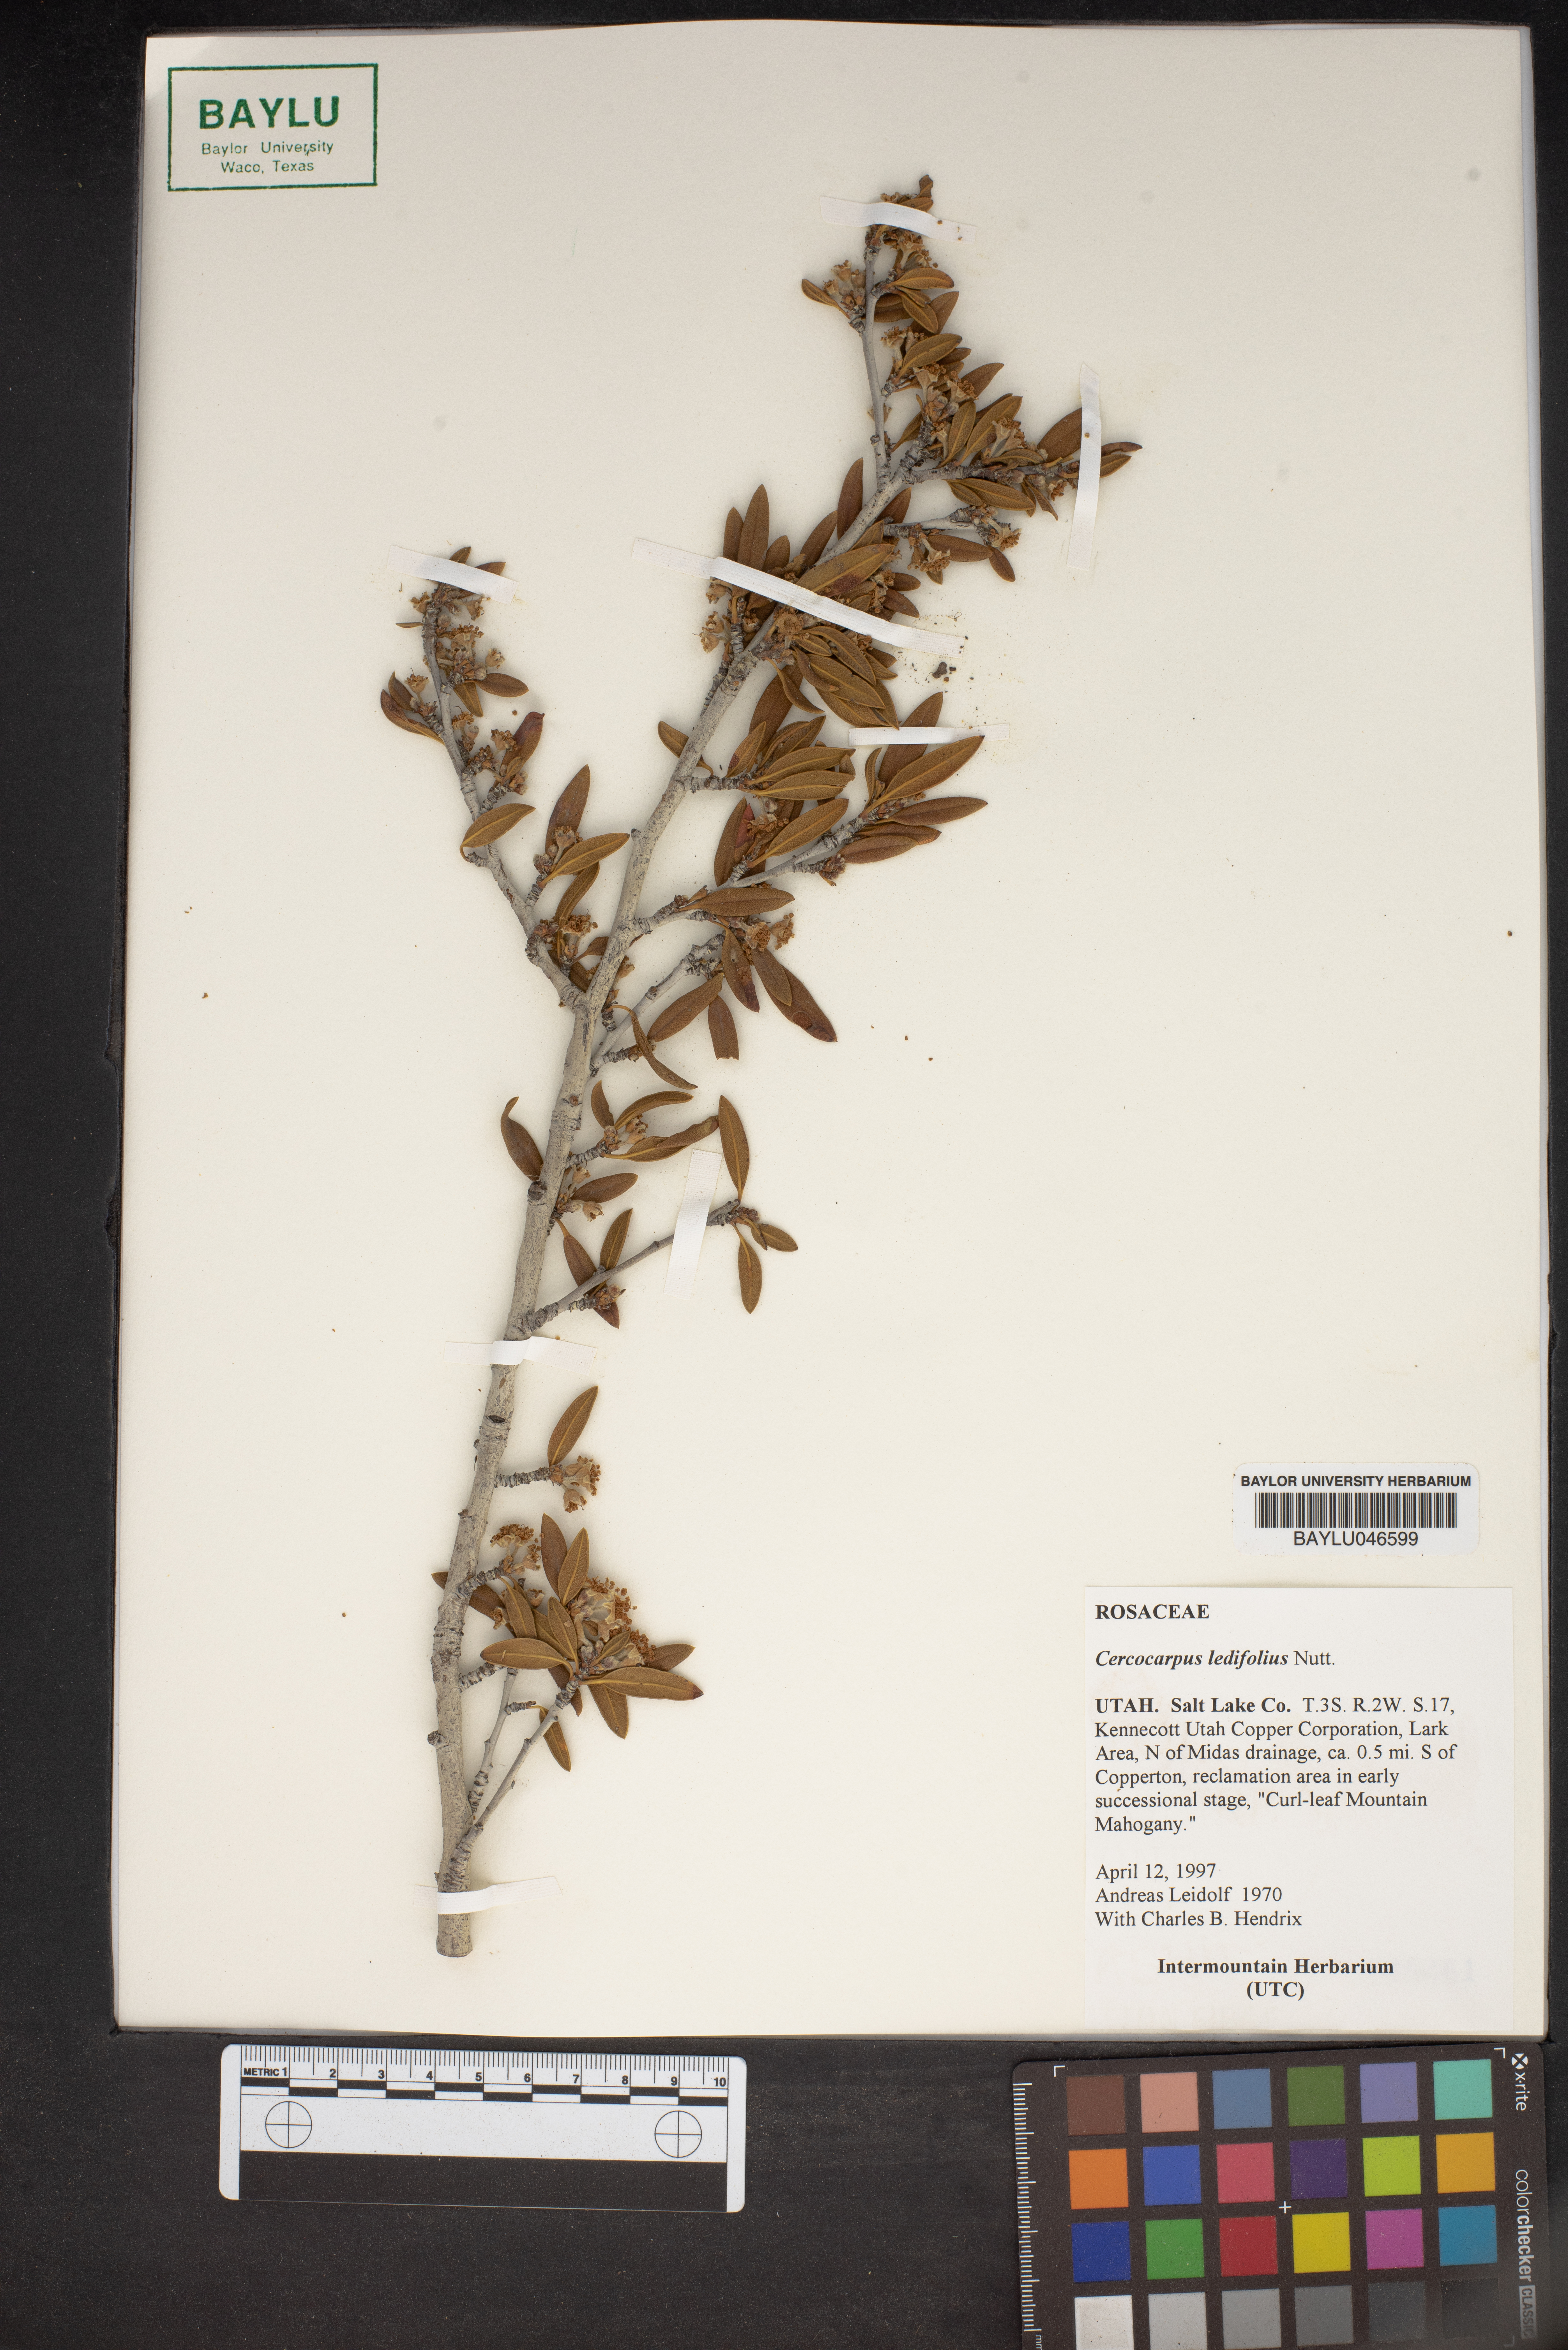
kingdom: Plantae
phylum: Tracheophyta
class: Magnoliopsida
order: Rosales
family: Rosaceae
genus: Cercocarpus
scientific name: Cercocarpus ledifolius
